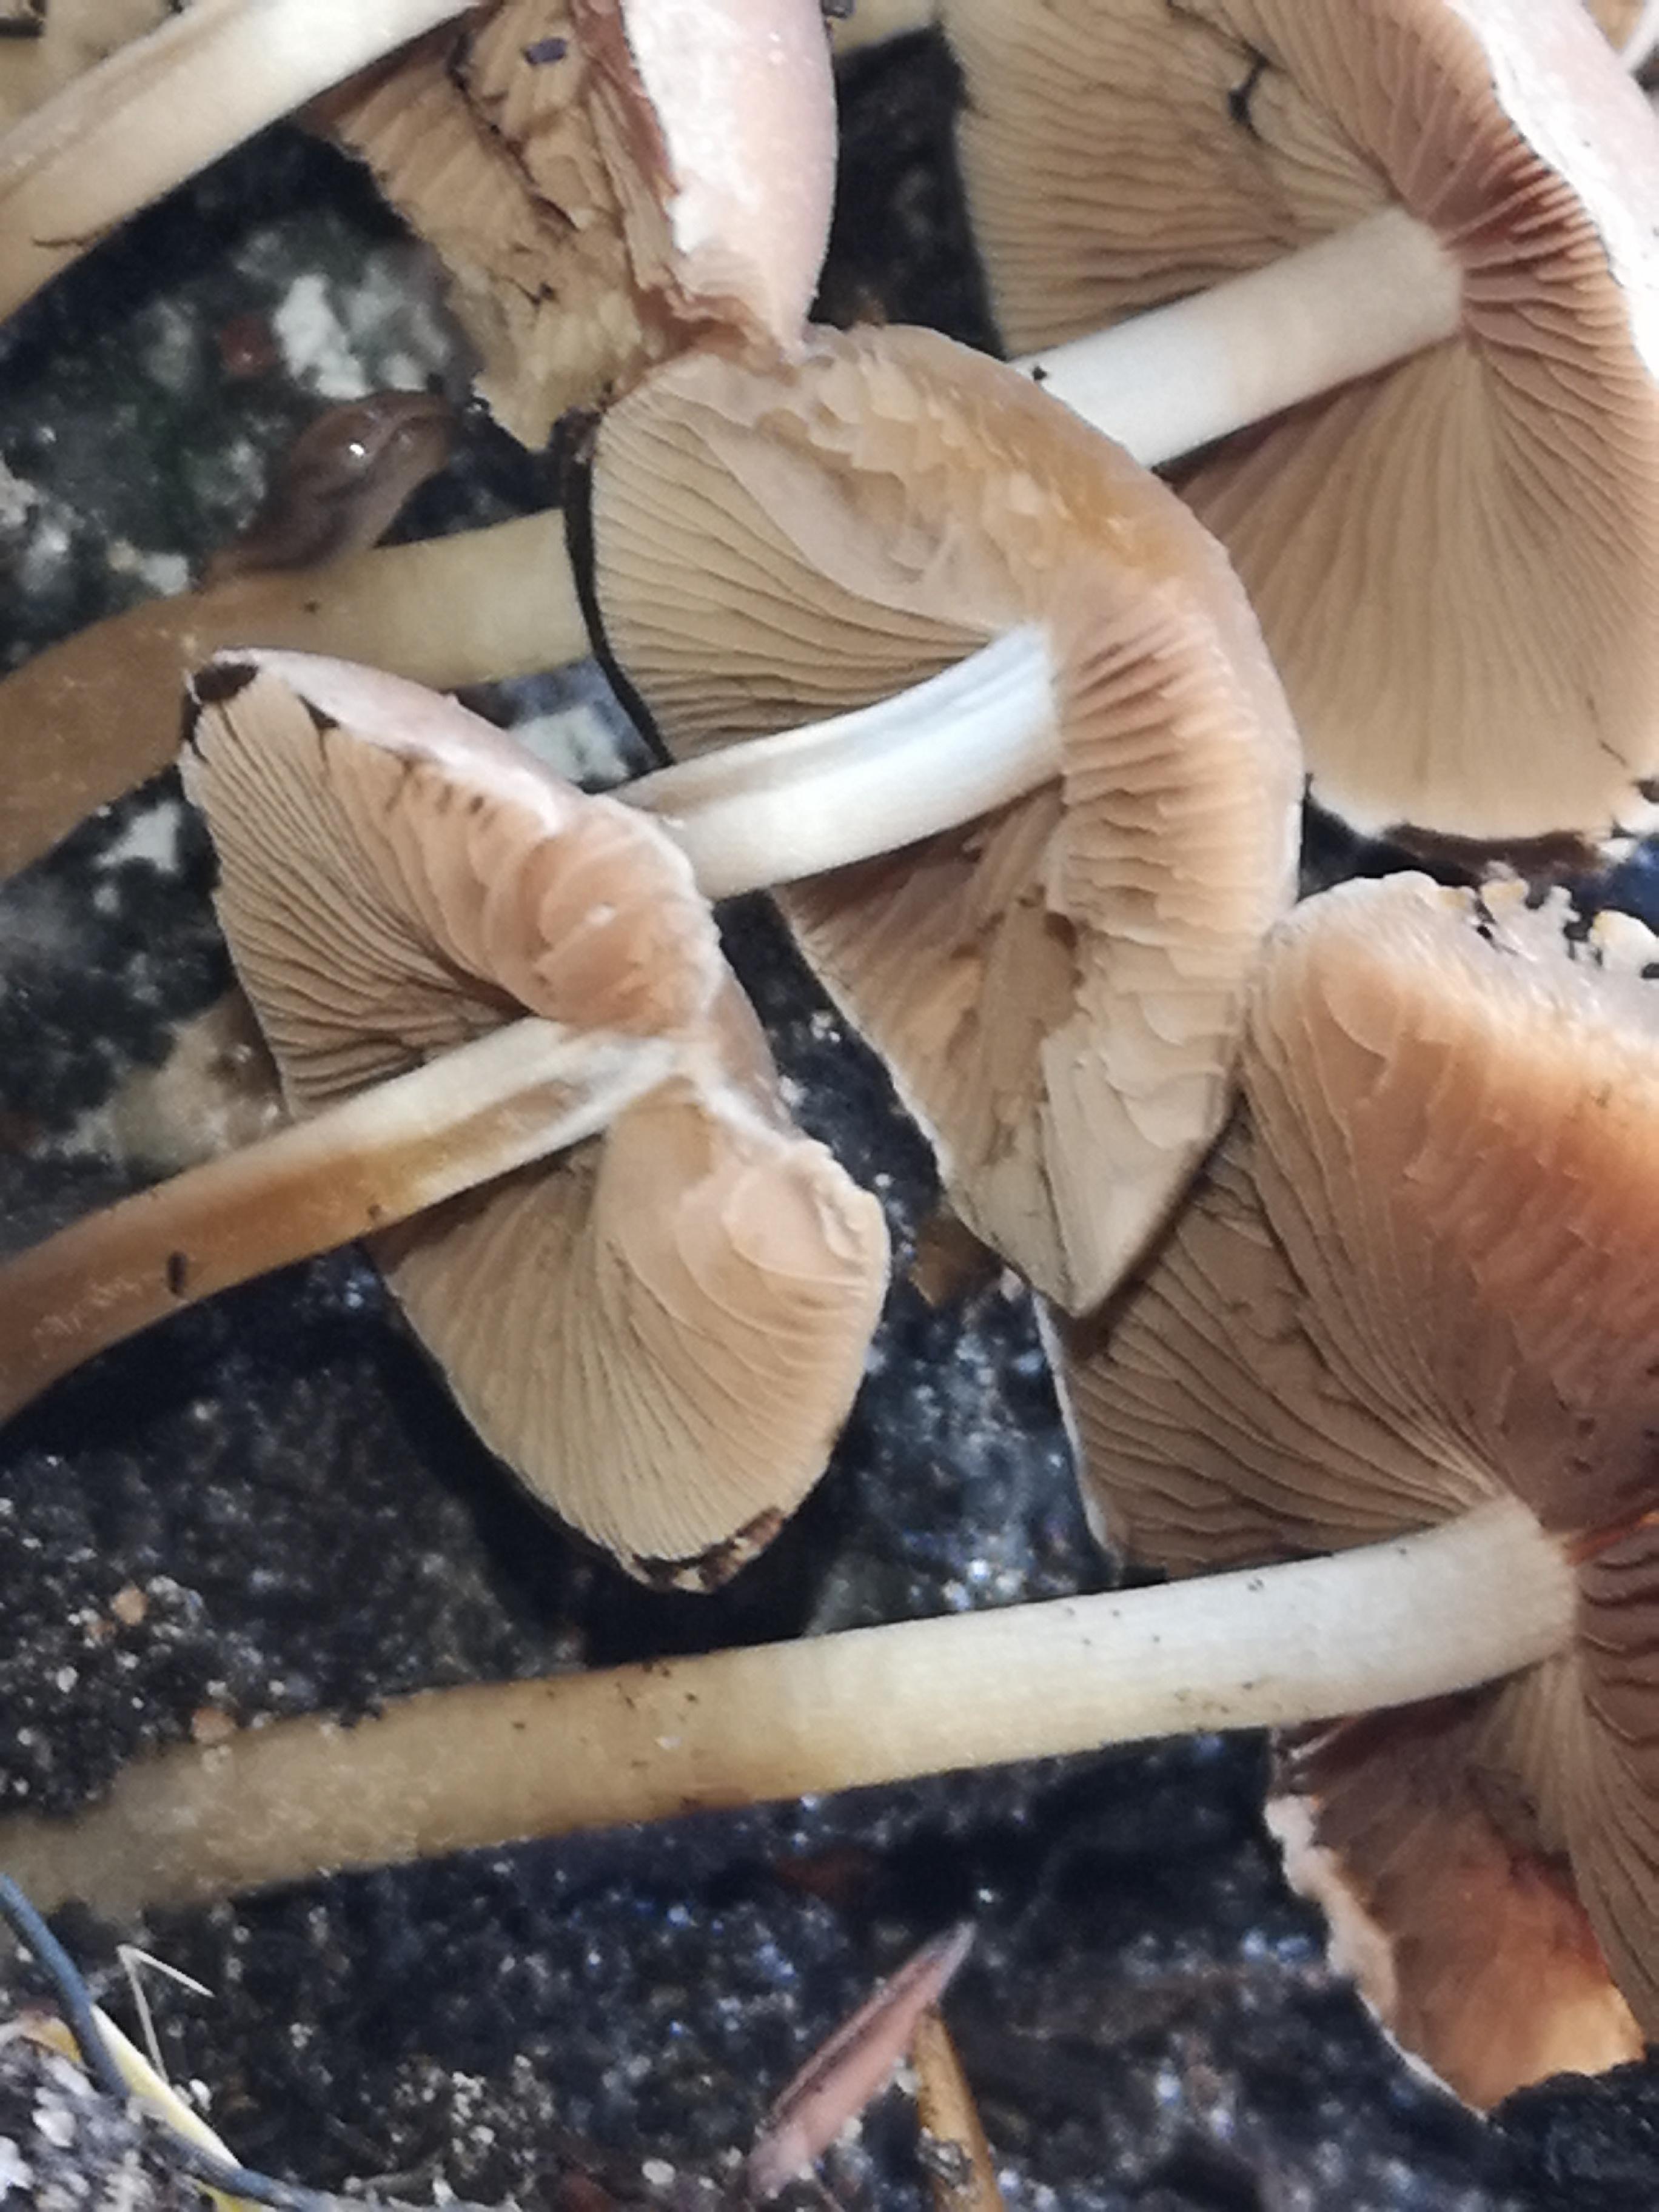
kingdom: Fungi
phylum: Basidiomycota
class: Agaricomycetes
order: Agaricales
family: Psathyrellaceae
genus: Psathyrella
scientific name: Psathyrella piluliformis
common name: lysstokket mørkhat
